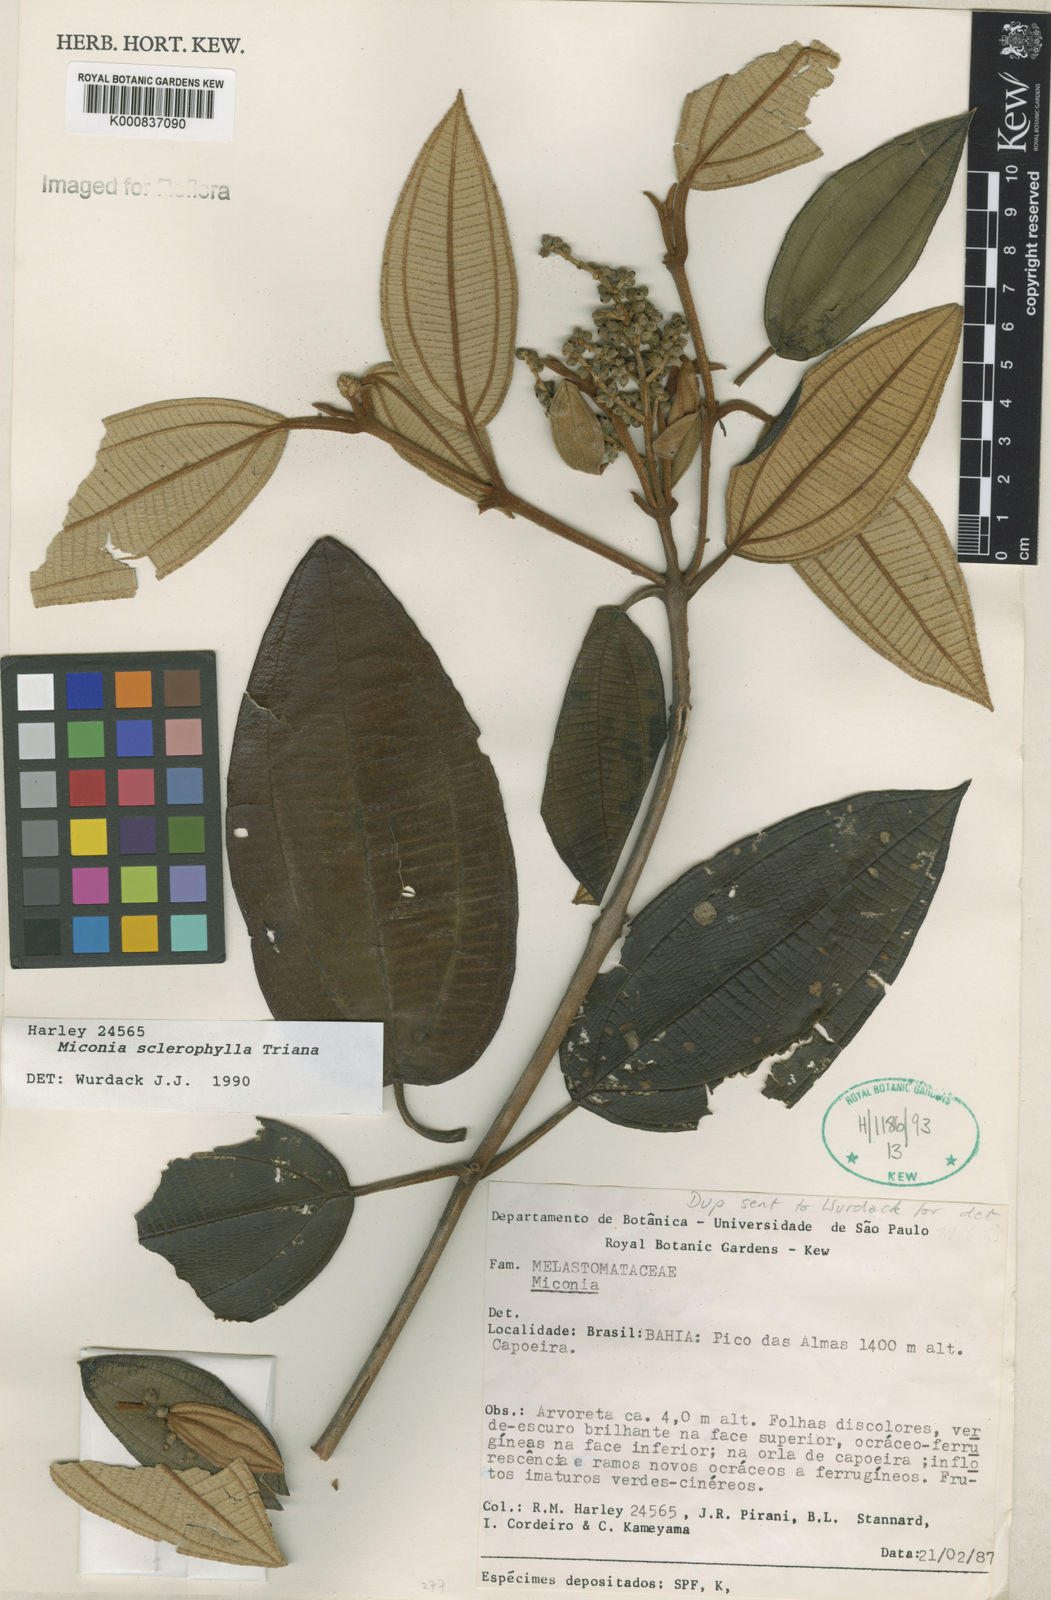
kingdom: Plantae
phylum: Tracheophyta
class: Magnoliopsida
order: Myrtales
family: Melastomataceae
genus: Miconia
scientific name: Miconia sclerophylla
